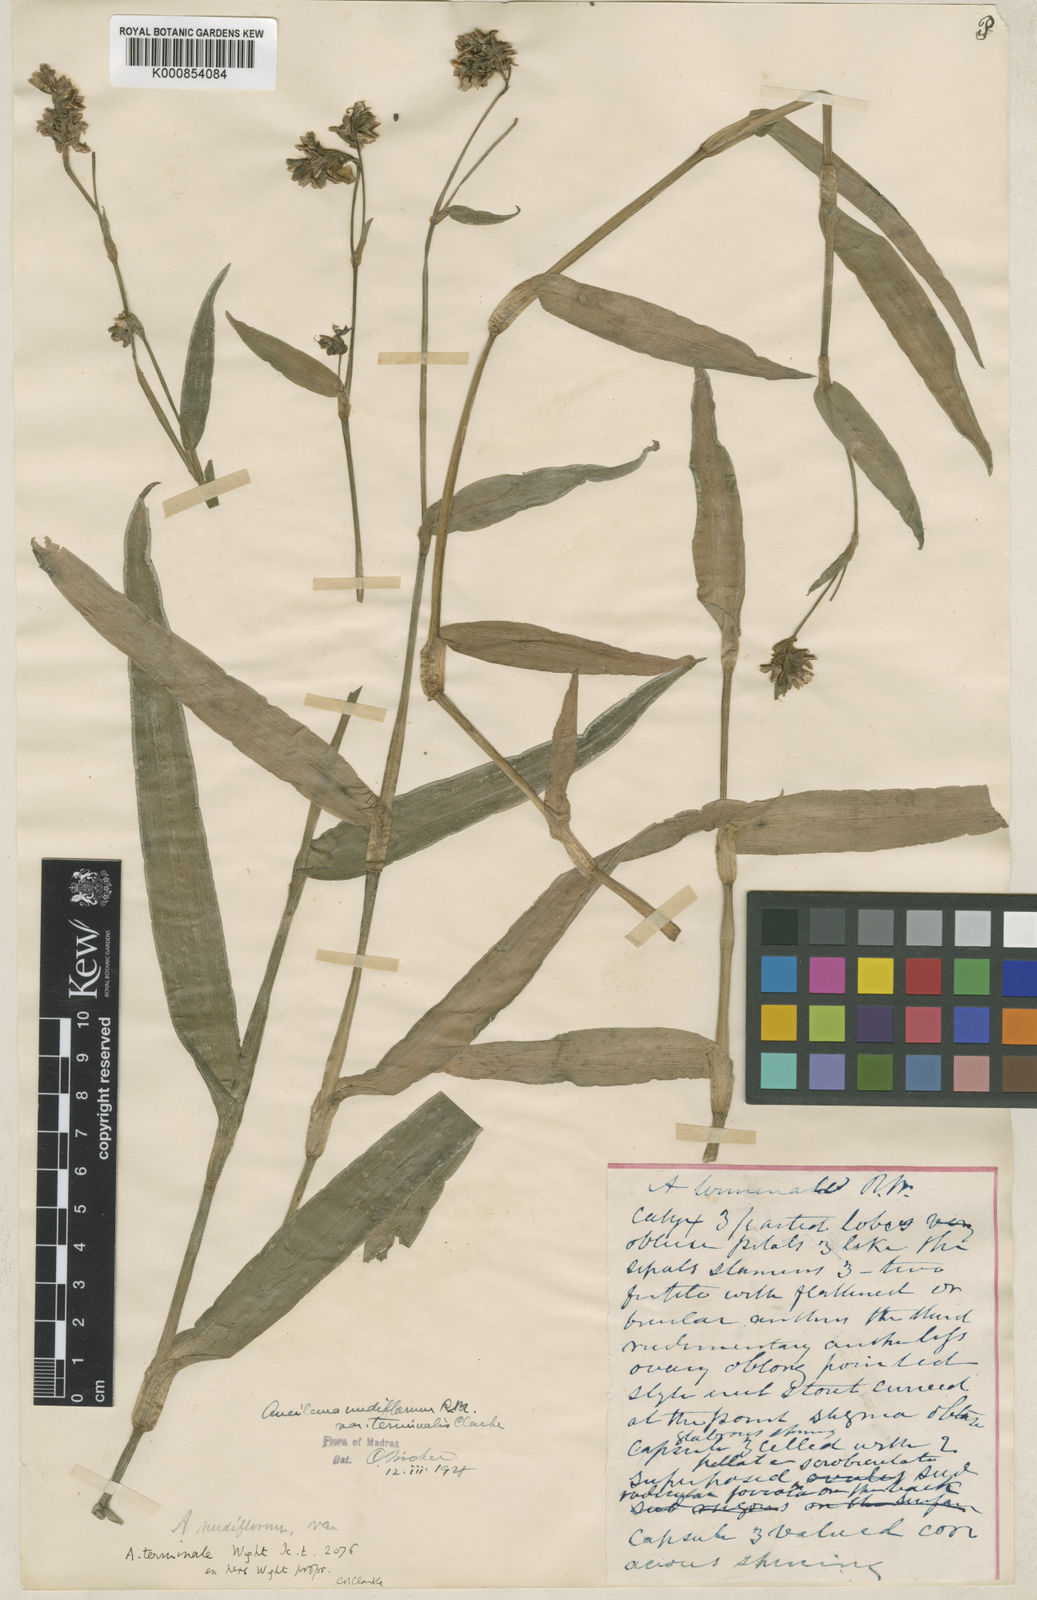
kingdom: Plantae
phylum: Tracheophyta
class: Liliopsida
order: Commelinales
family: Commelinaceae
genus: Murdannia
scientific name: Murdannia nudiflora
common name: Nakedstem dewflower
